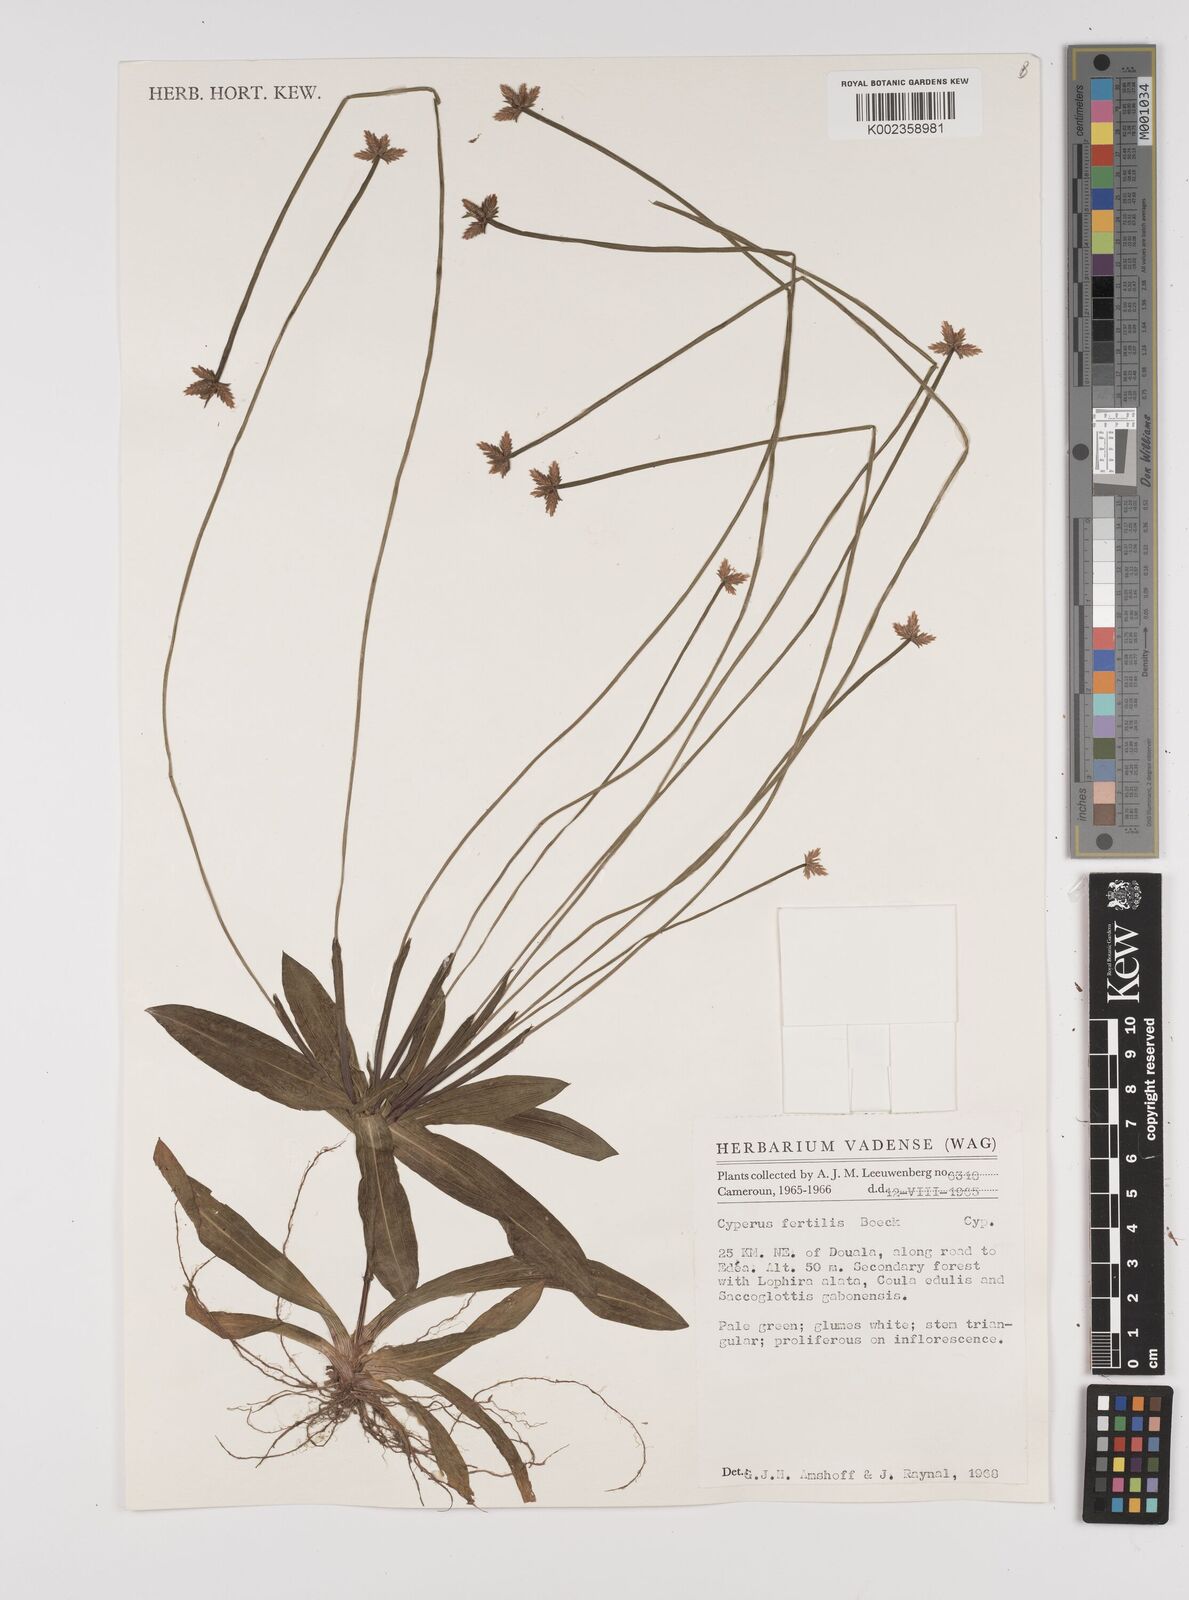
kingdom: Plantae
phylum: Tracheophyta
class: Liliopsida
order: Poales
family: Cyperaceae
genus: Cyperus
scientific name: Cyperus fertilis
